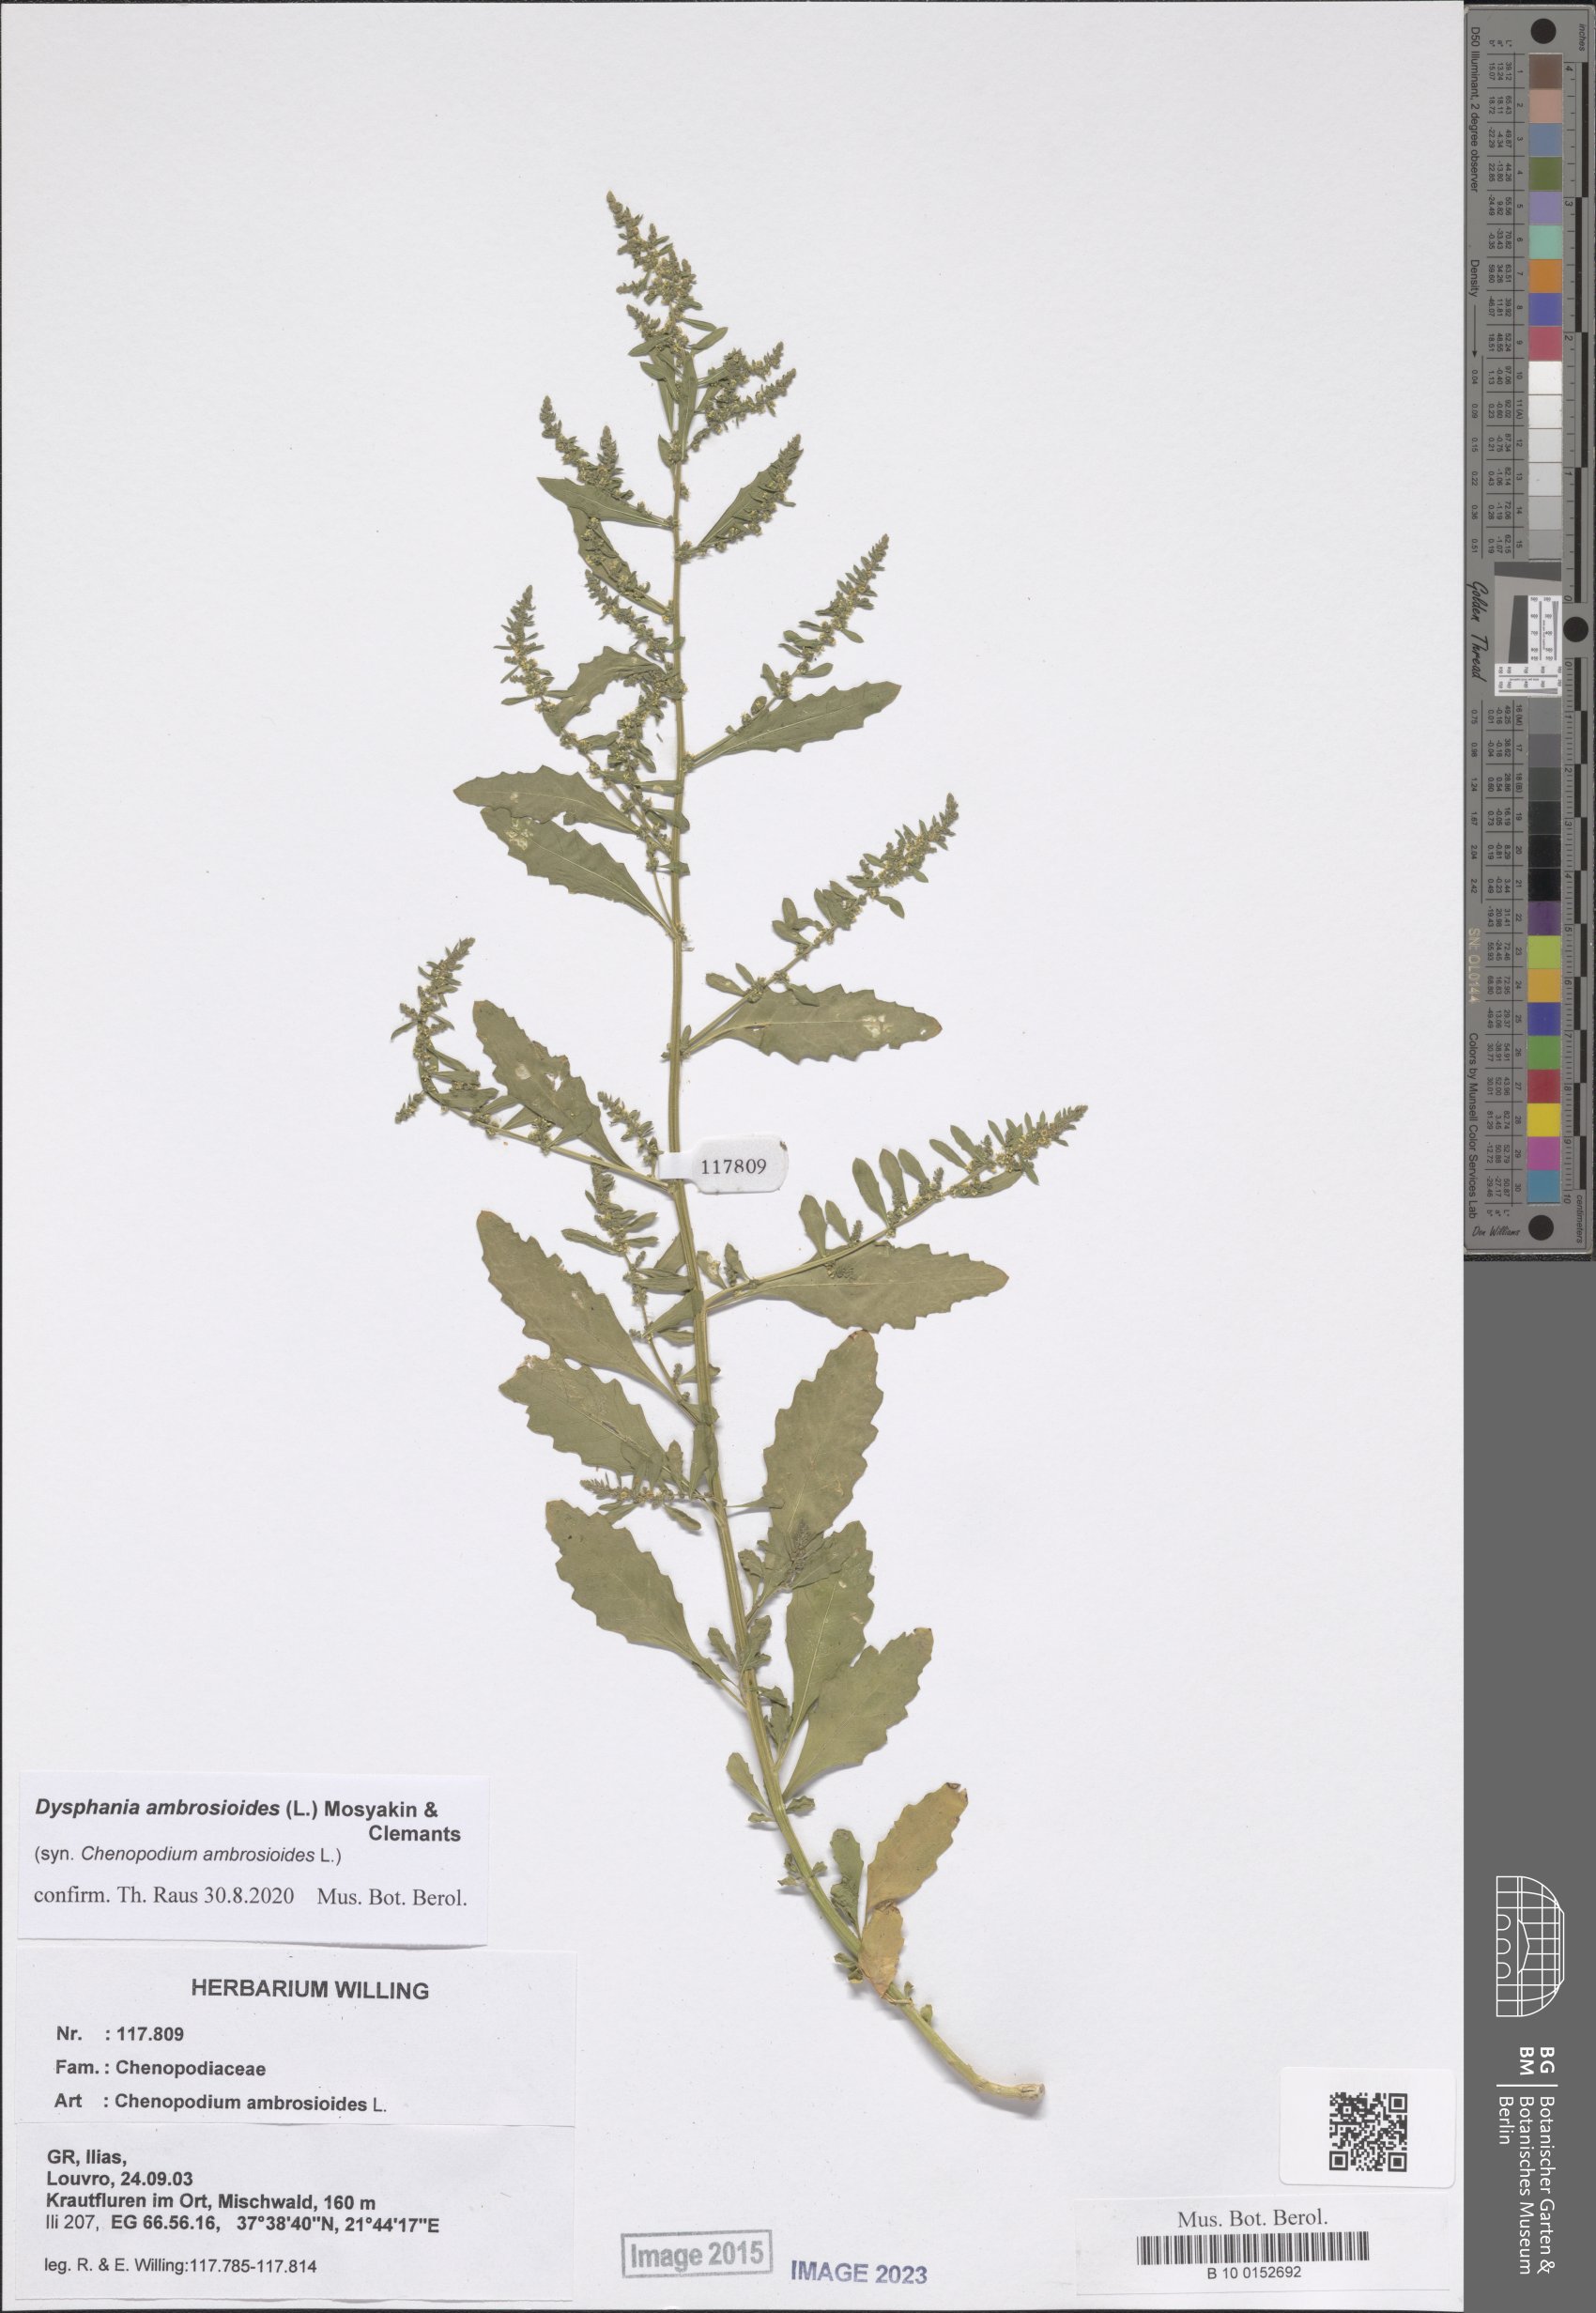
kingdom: Plantae
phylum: Tracheophyta
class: Magnoliopsida
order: Caryophyllales
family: Amaranthaceae
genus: Dysphania
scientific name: Dysphania ambrosioides
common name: Wormseed
